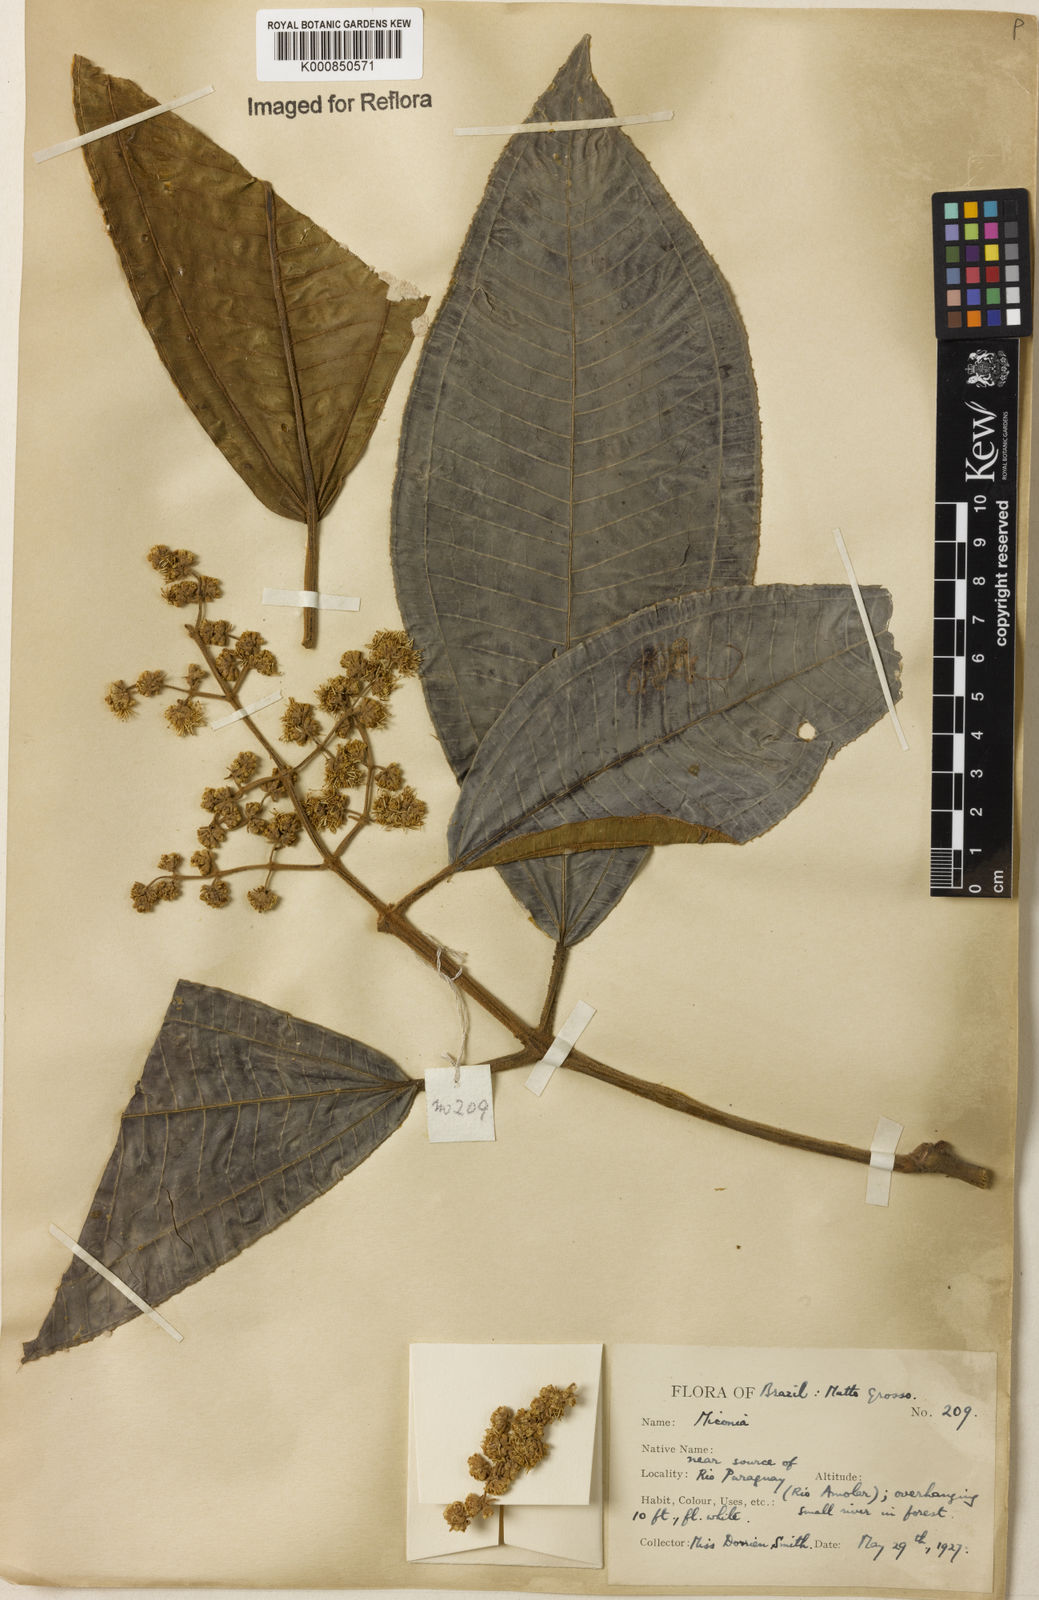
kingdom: Plantae
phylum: Tracheophyta
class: Magnoliopsida
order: Myrtales
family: Melastomataceae
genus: Miconia
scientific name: Miconia
